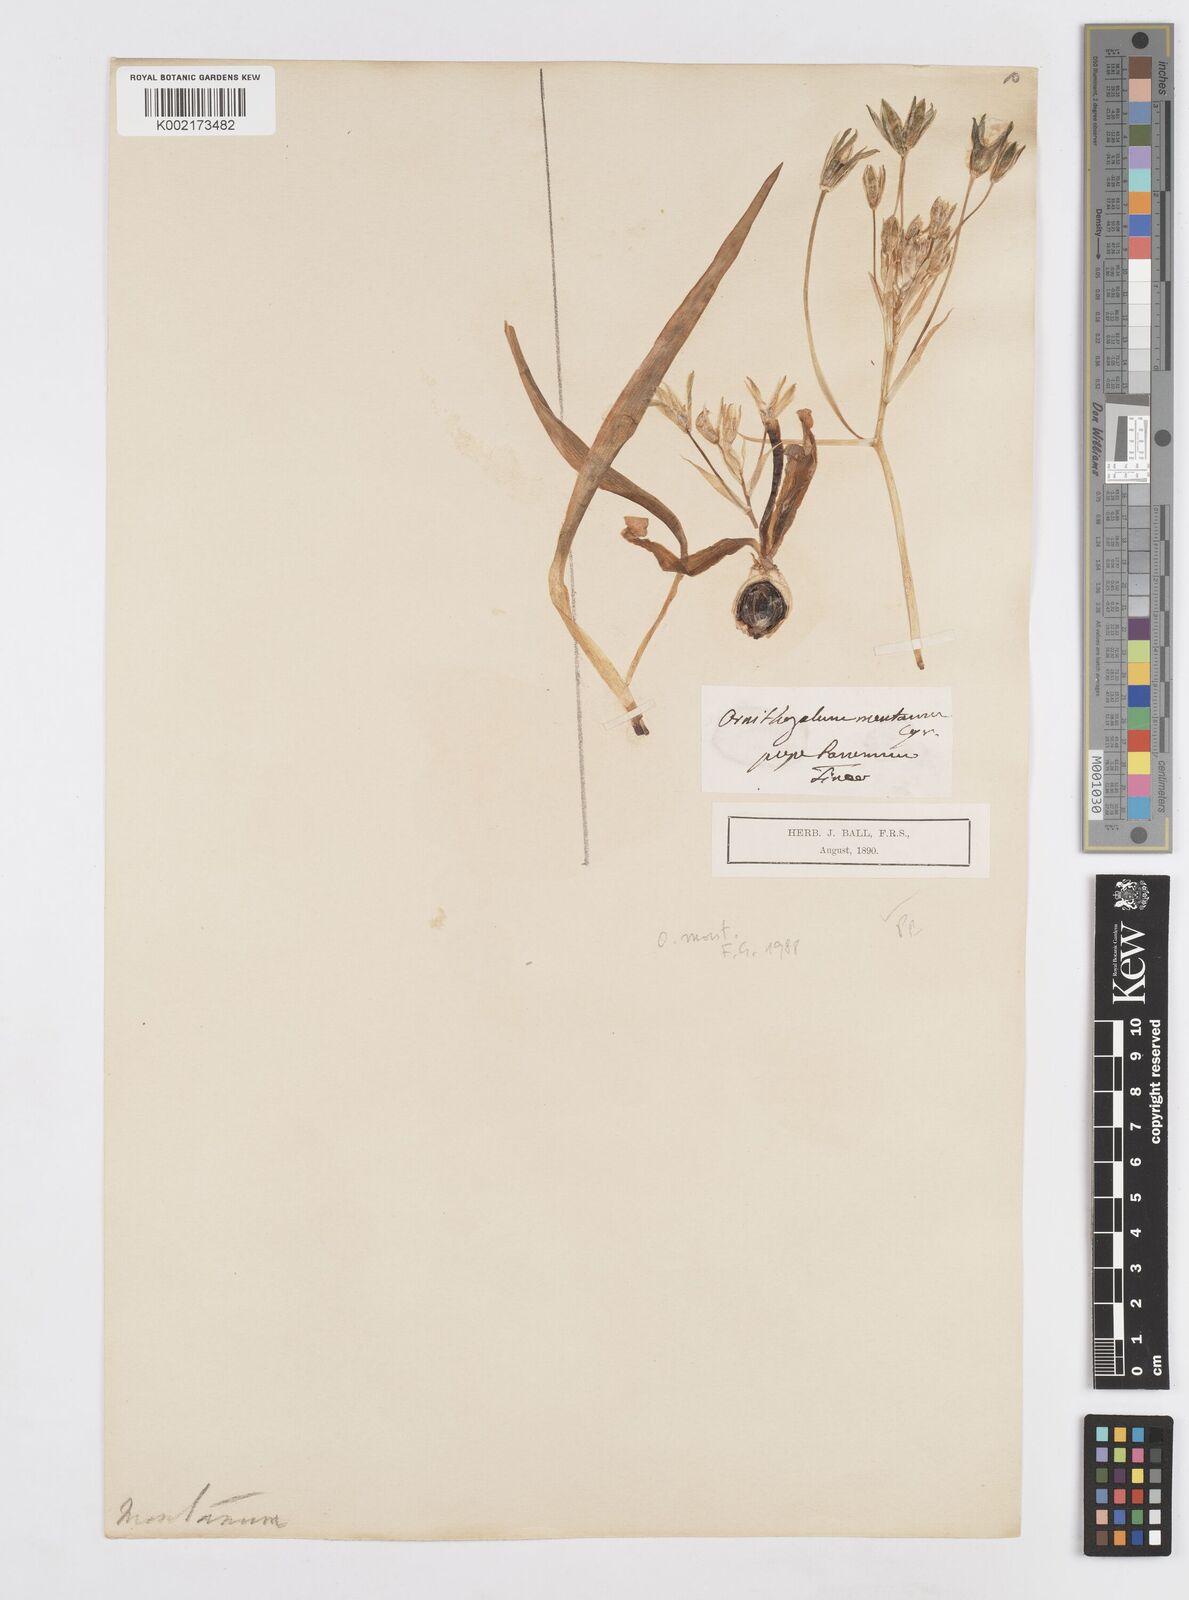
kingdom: Plantae
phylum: Tracheophyta
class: Liliopsida
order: Asparagales
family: Asparagaceae
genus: Ornithogalum
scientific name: Ornithogalum montanum
